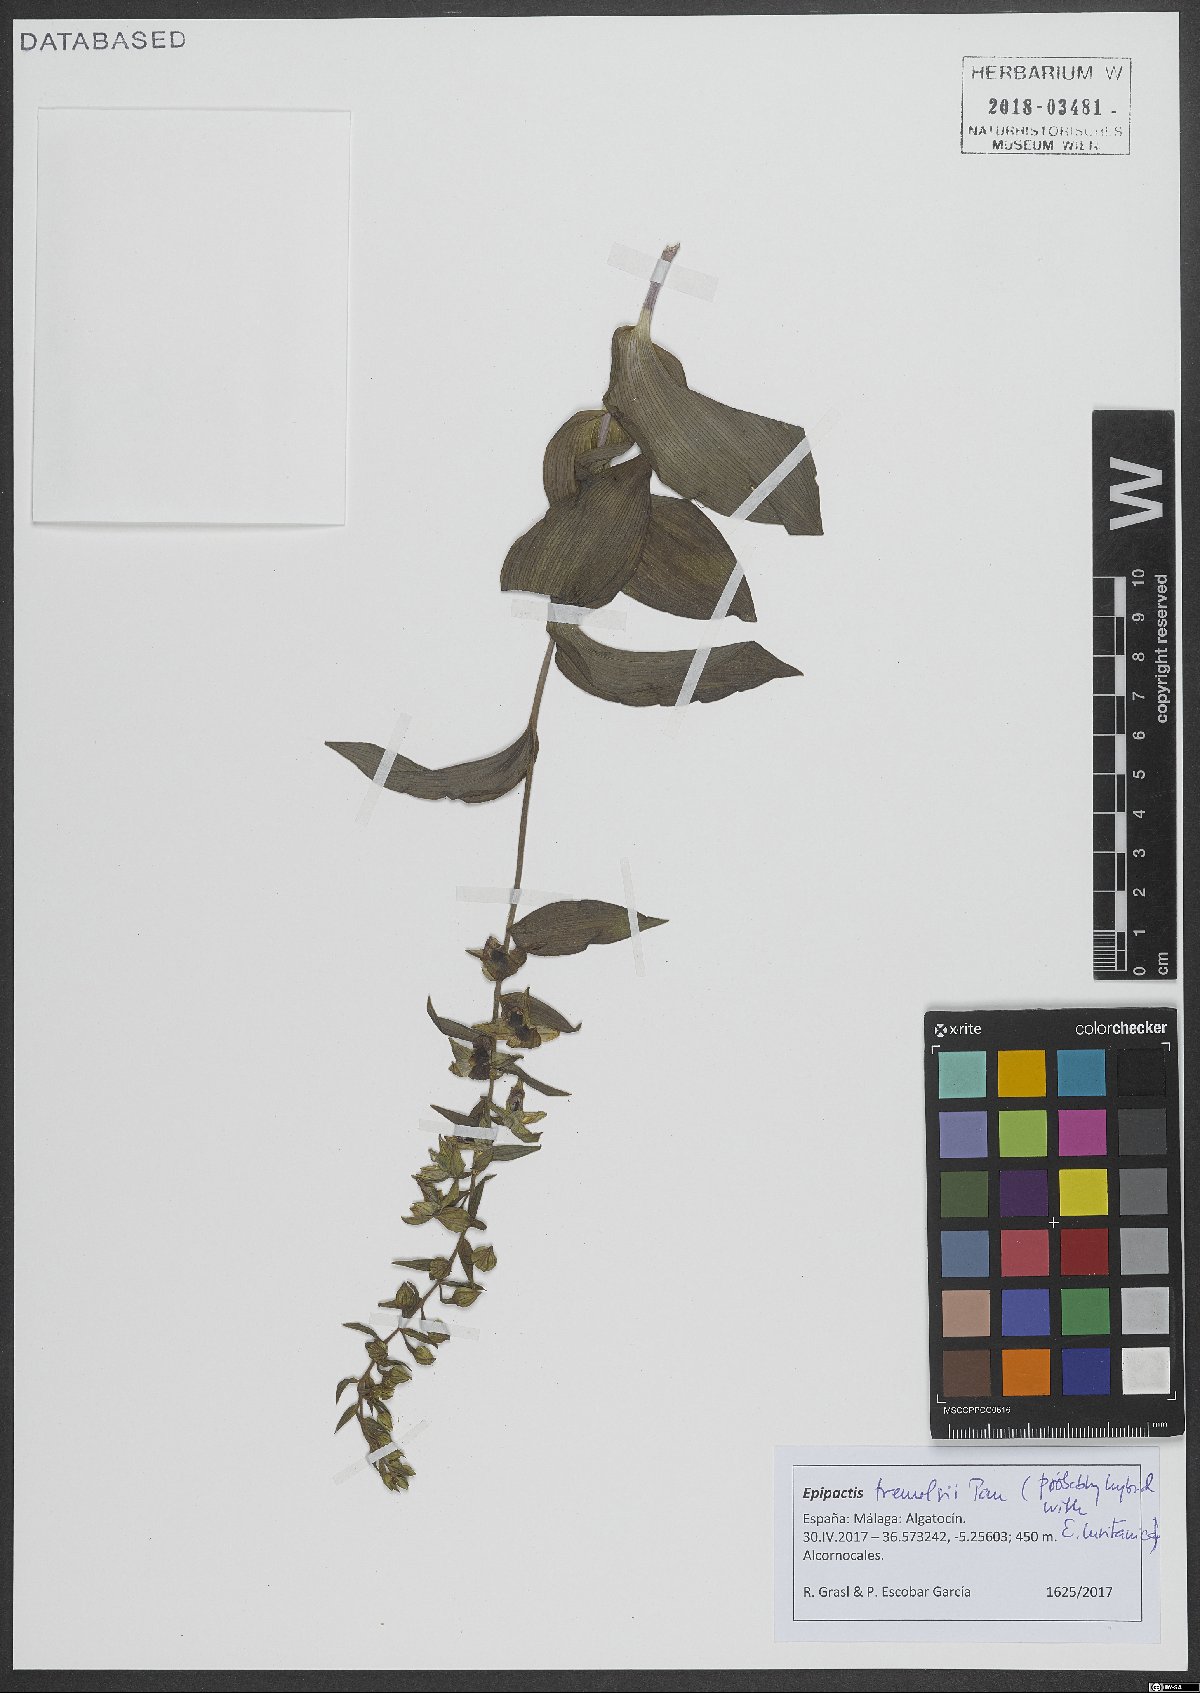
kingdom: Plantae
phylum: Tracheophyta
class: Liliopsida
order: Asparagales
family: Orchidaceae
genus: Epipactis
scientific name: Epipactis helleborine
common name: Broad-leaved helleborine
